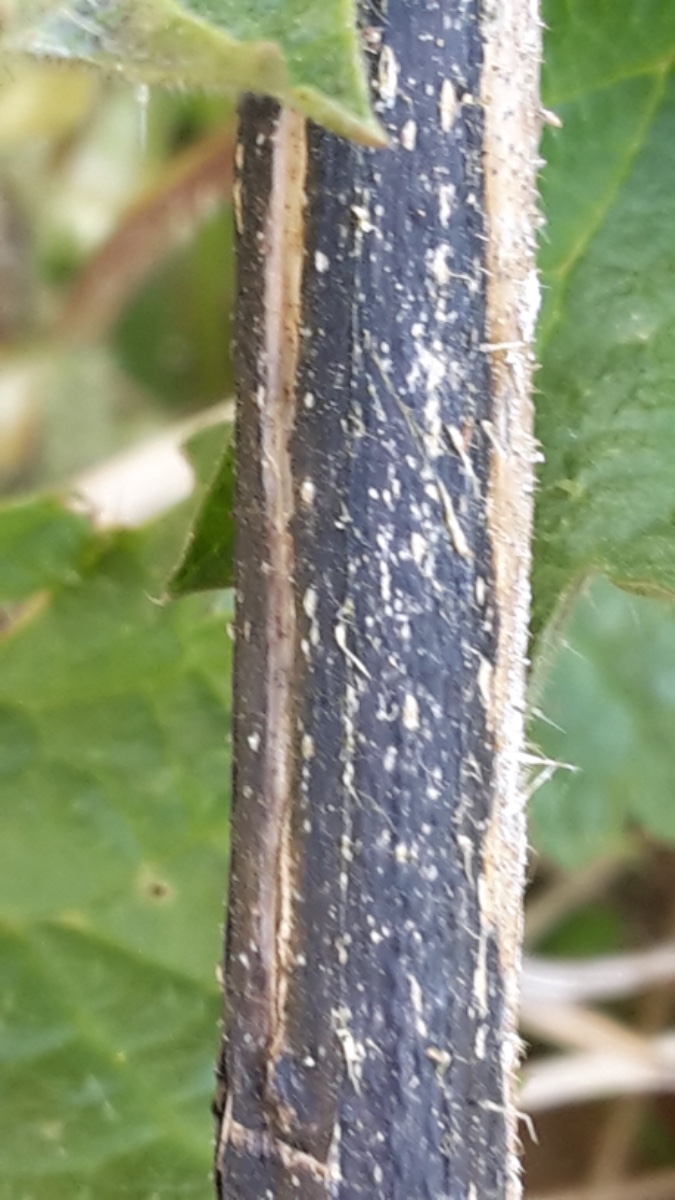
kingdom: Fungi
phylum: Ascomycota
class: Sordariomycetes
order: Diaporthales
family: Diaporthaceae
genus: Diaporthopsis
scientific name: Diaporthopsis urticae
